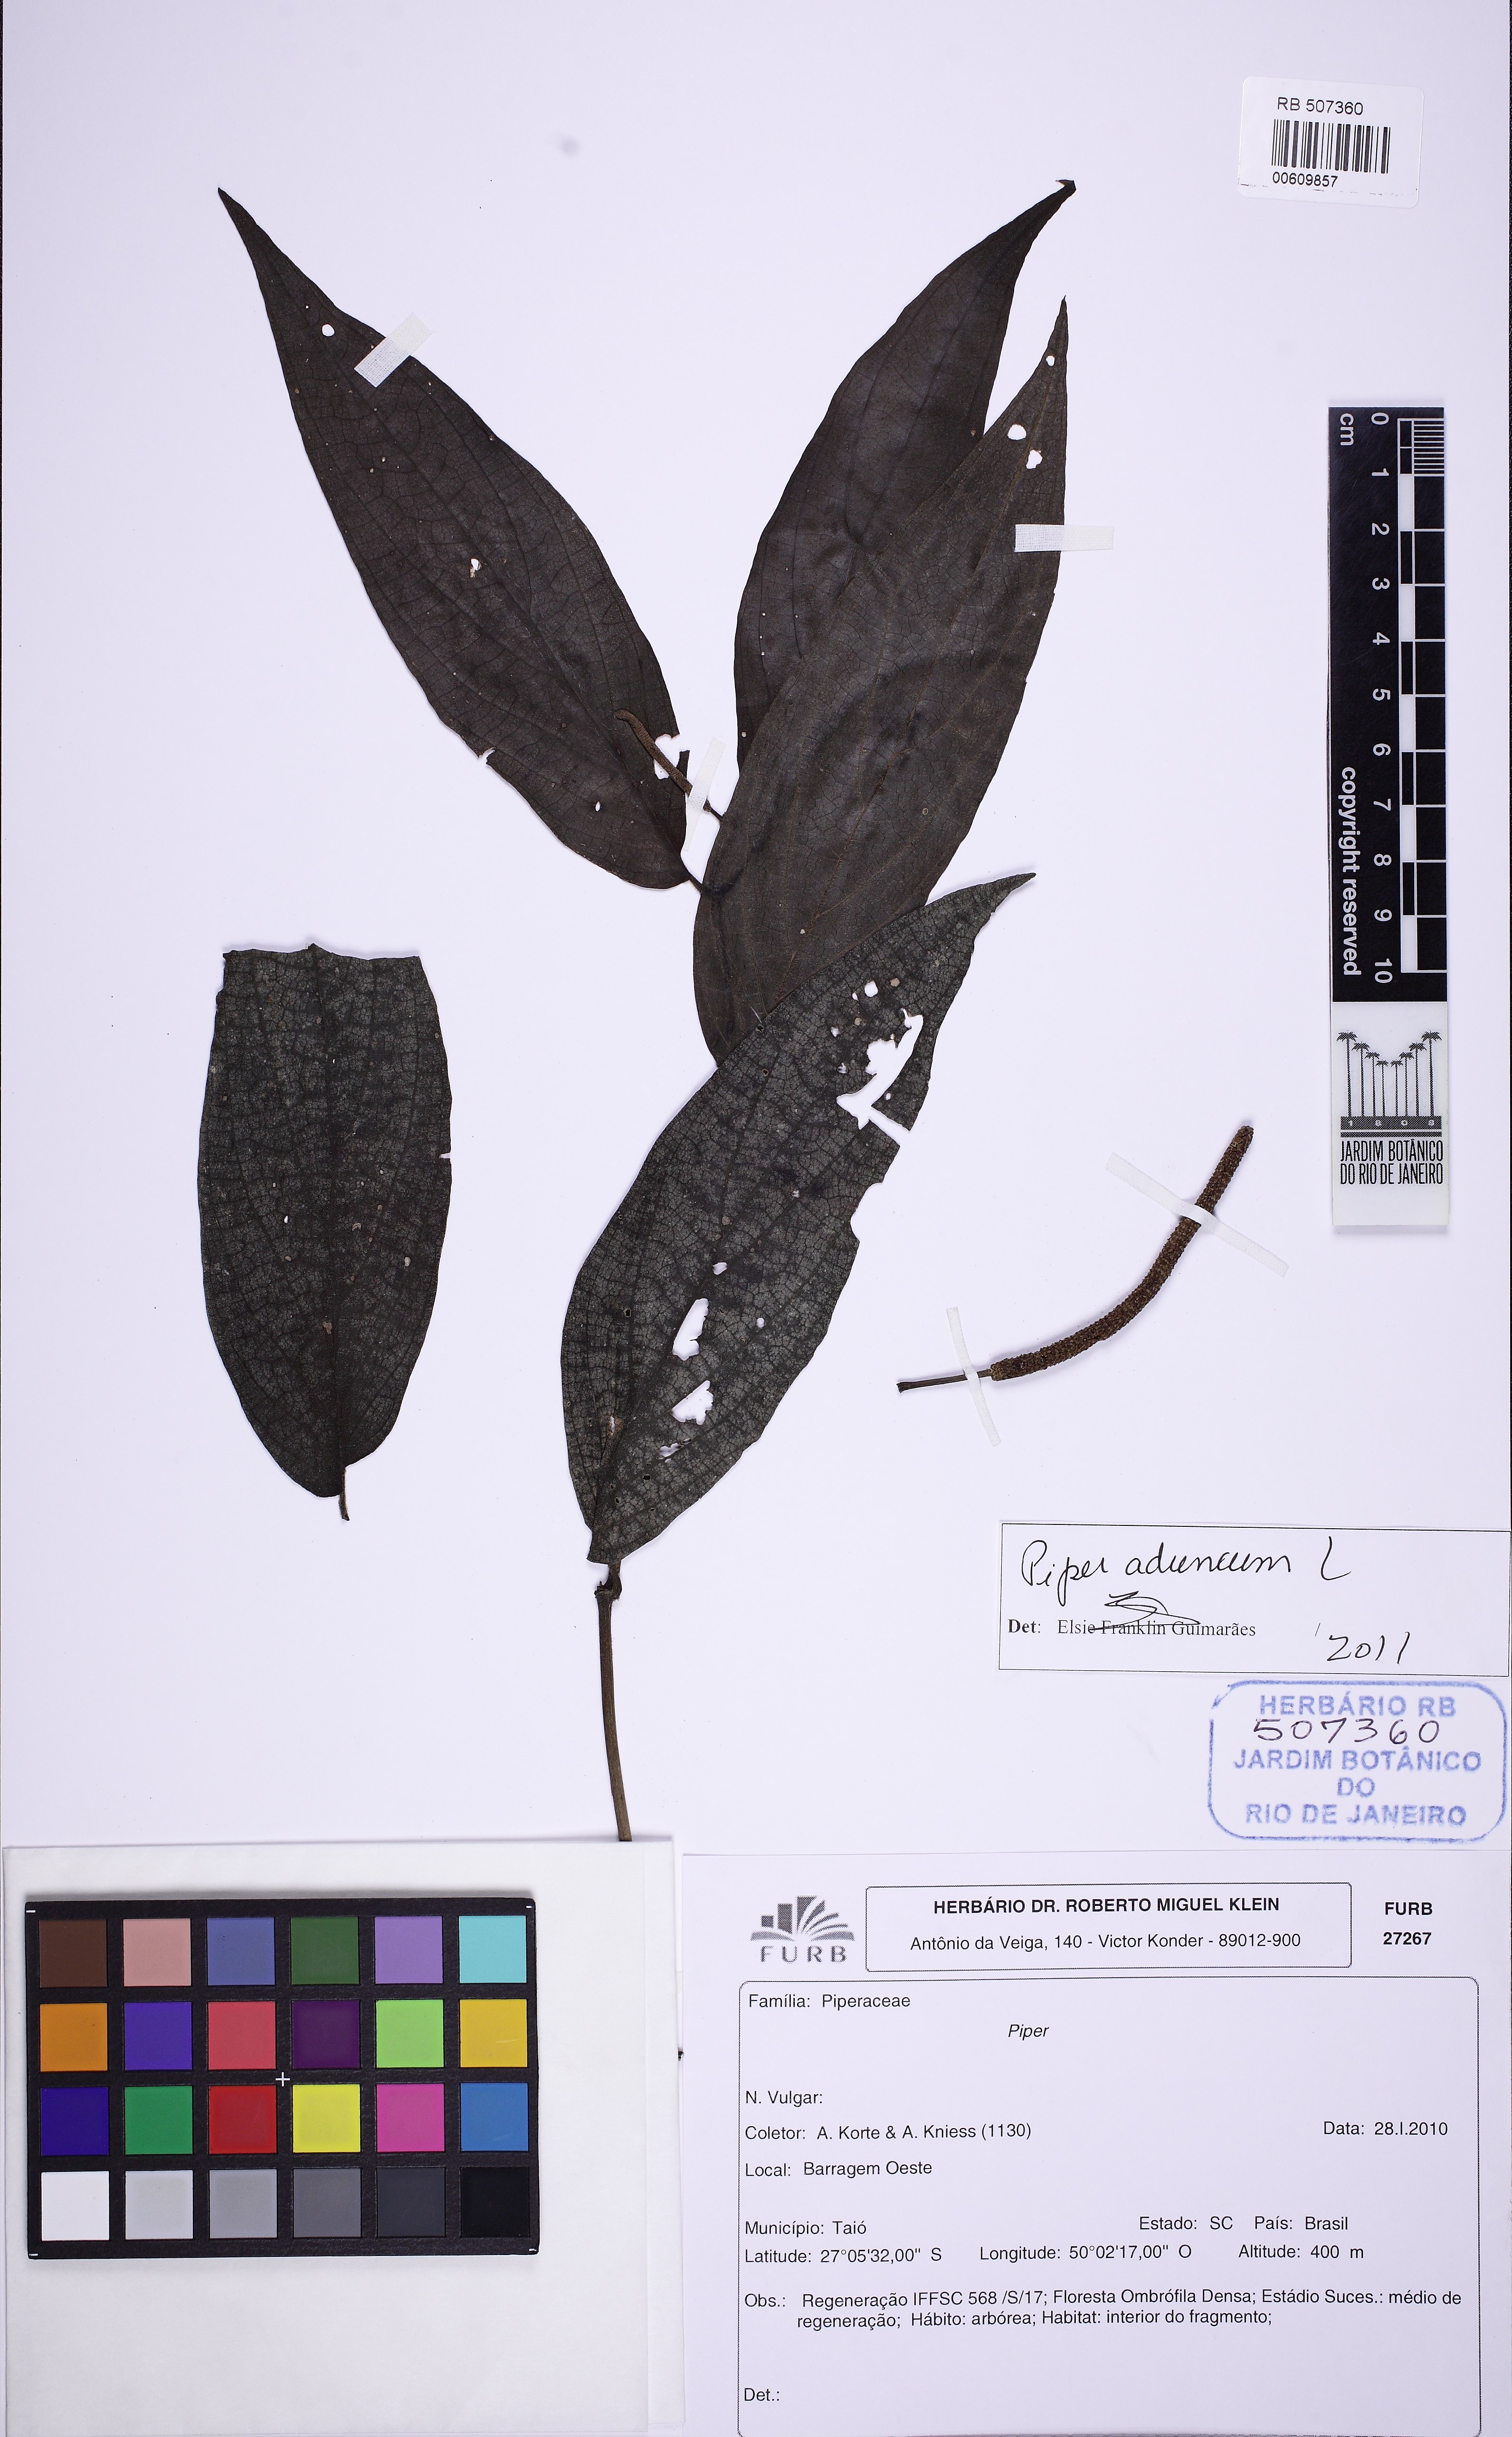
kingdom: Plantae
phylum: Tracheophyta
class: Magnoliopsida
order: Piperales
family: Piperaceae
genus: Piper
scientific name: Piper aduncum
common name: Spiked pepper
